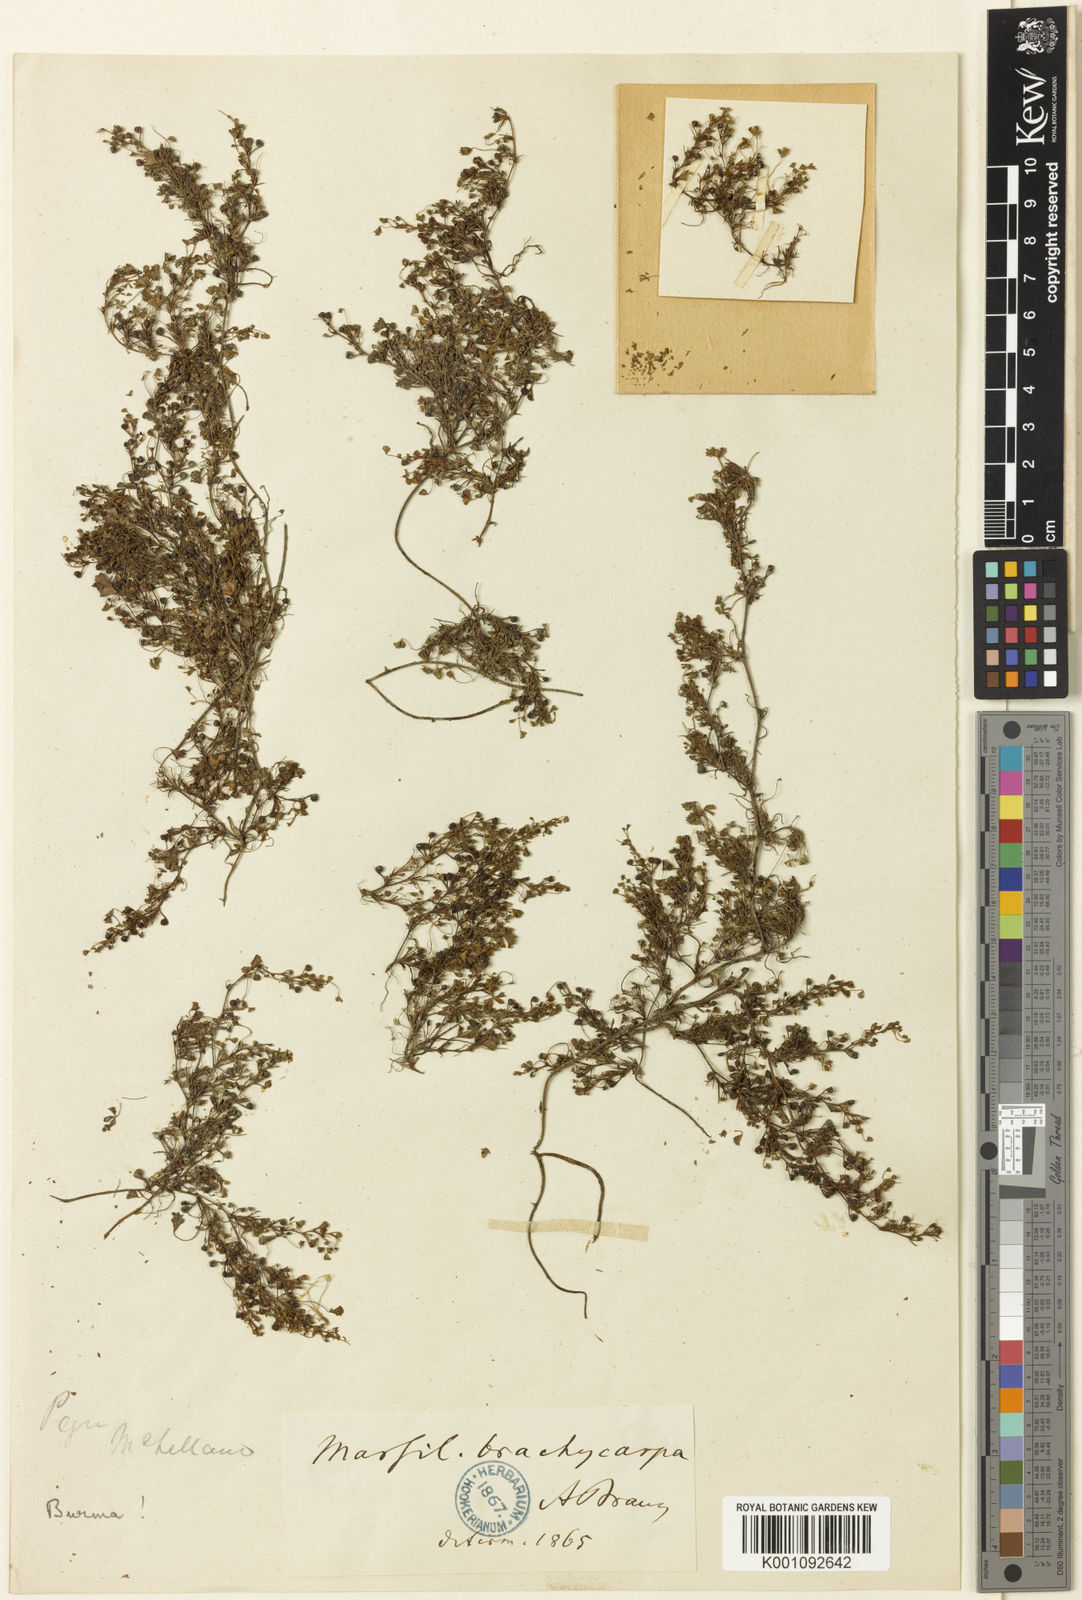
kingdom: Plantae
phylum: Tracheophyta
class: Polypodiopsida
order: Salviniales
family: Marsileaceae
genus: Marsilea
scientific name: Marsilea minuta
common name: Dwarf waterclover
